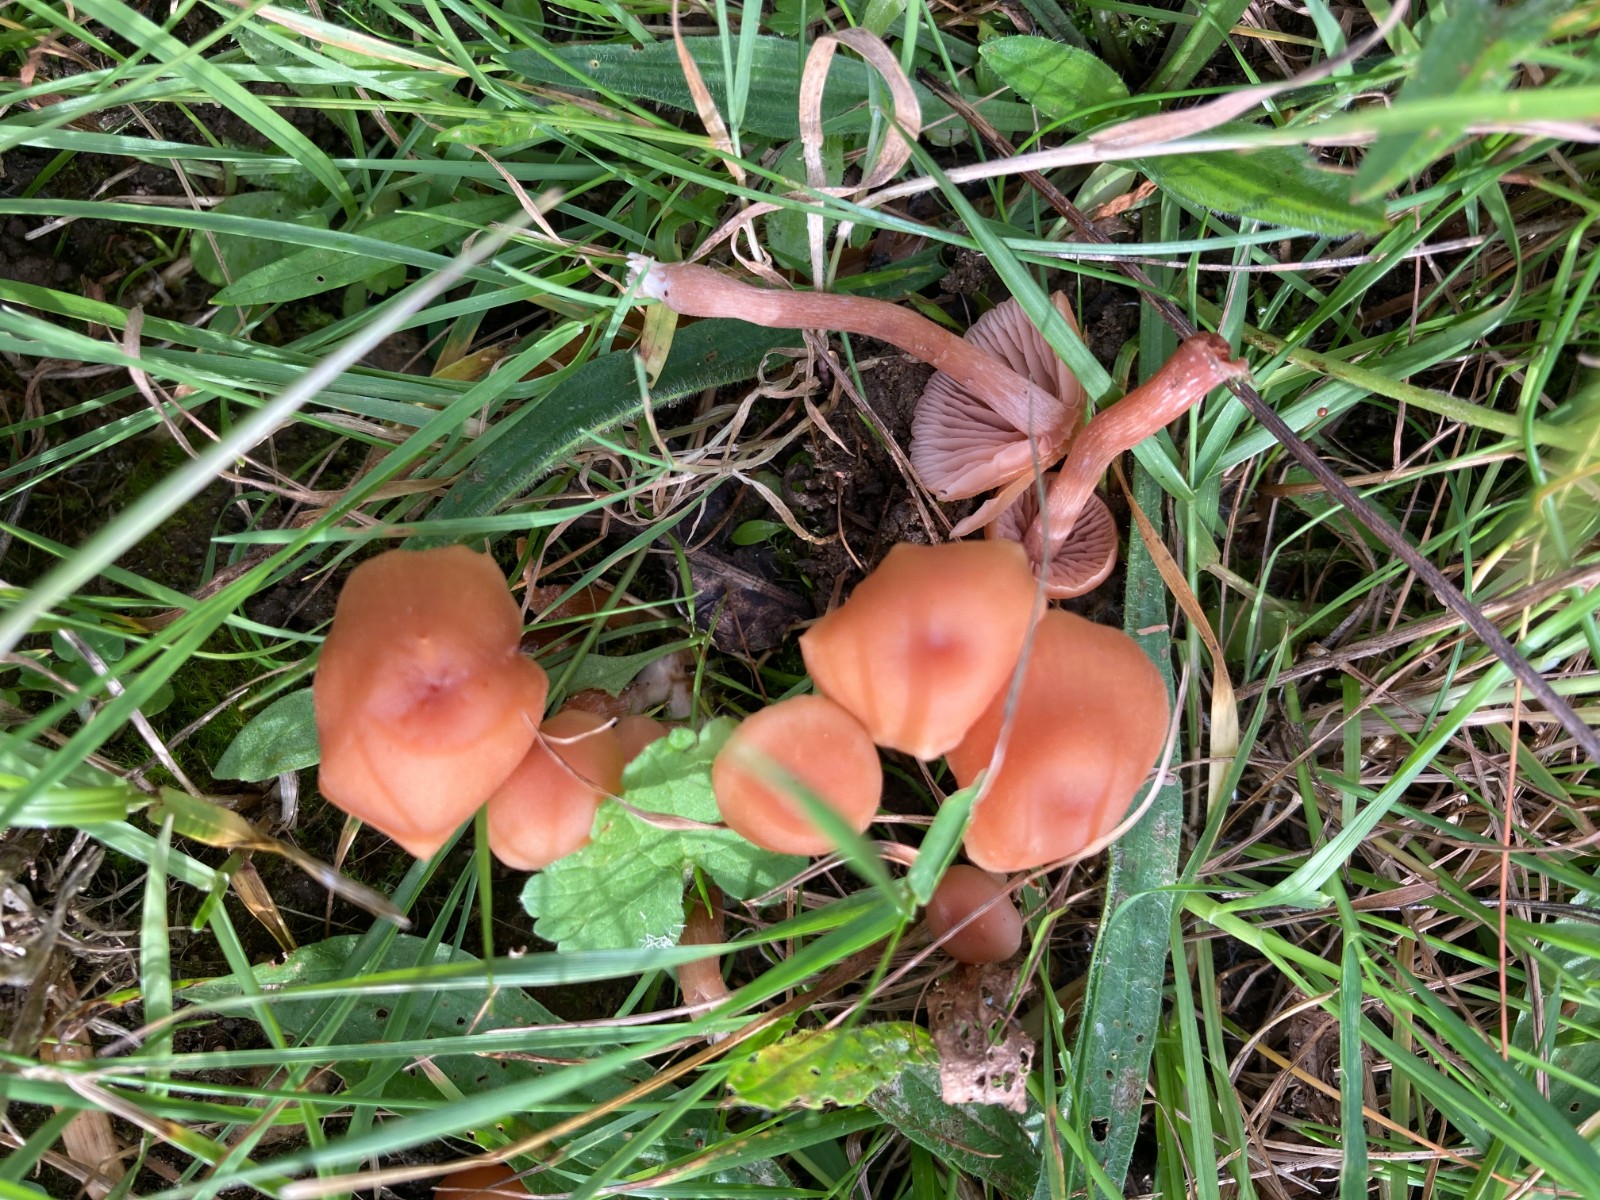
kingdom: Fungi
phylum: Basidiomycota
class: Agaricomycetes
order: Agaricales
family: Hydnangiaceae
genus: Laccaria
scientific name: Laccaria laccata
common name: rød ametysthat
